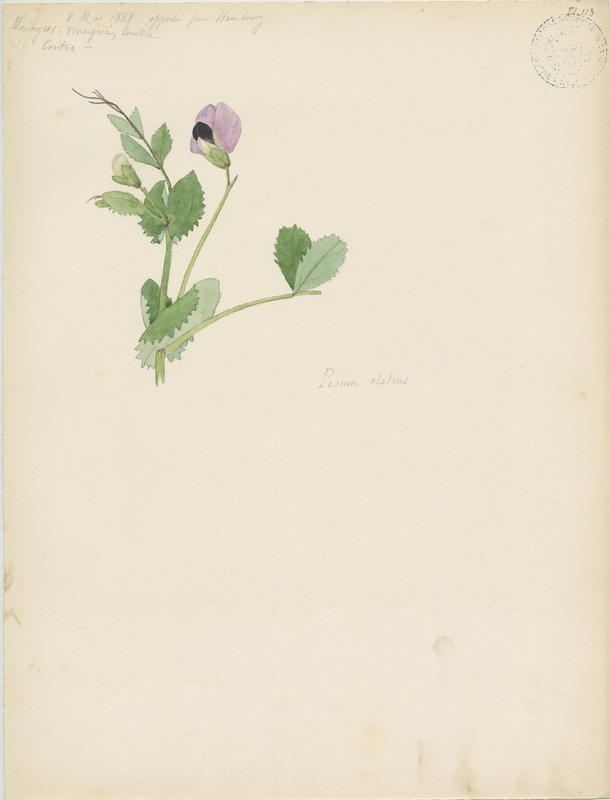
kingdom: Plantae
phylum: Tracheophyta
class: Magnoliopsida
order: Fabales
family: Fabaceae
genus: Lathyrus
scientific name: Lathyrus oleraceus
